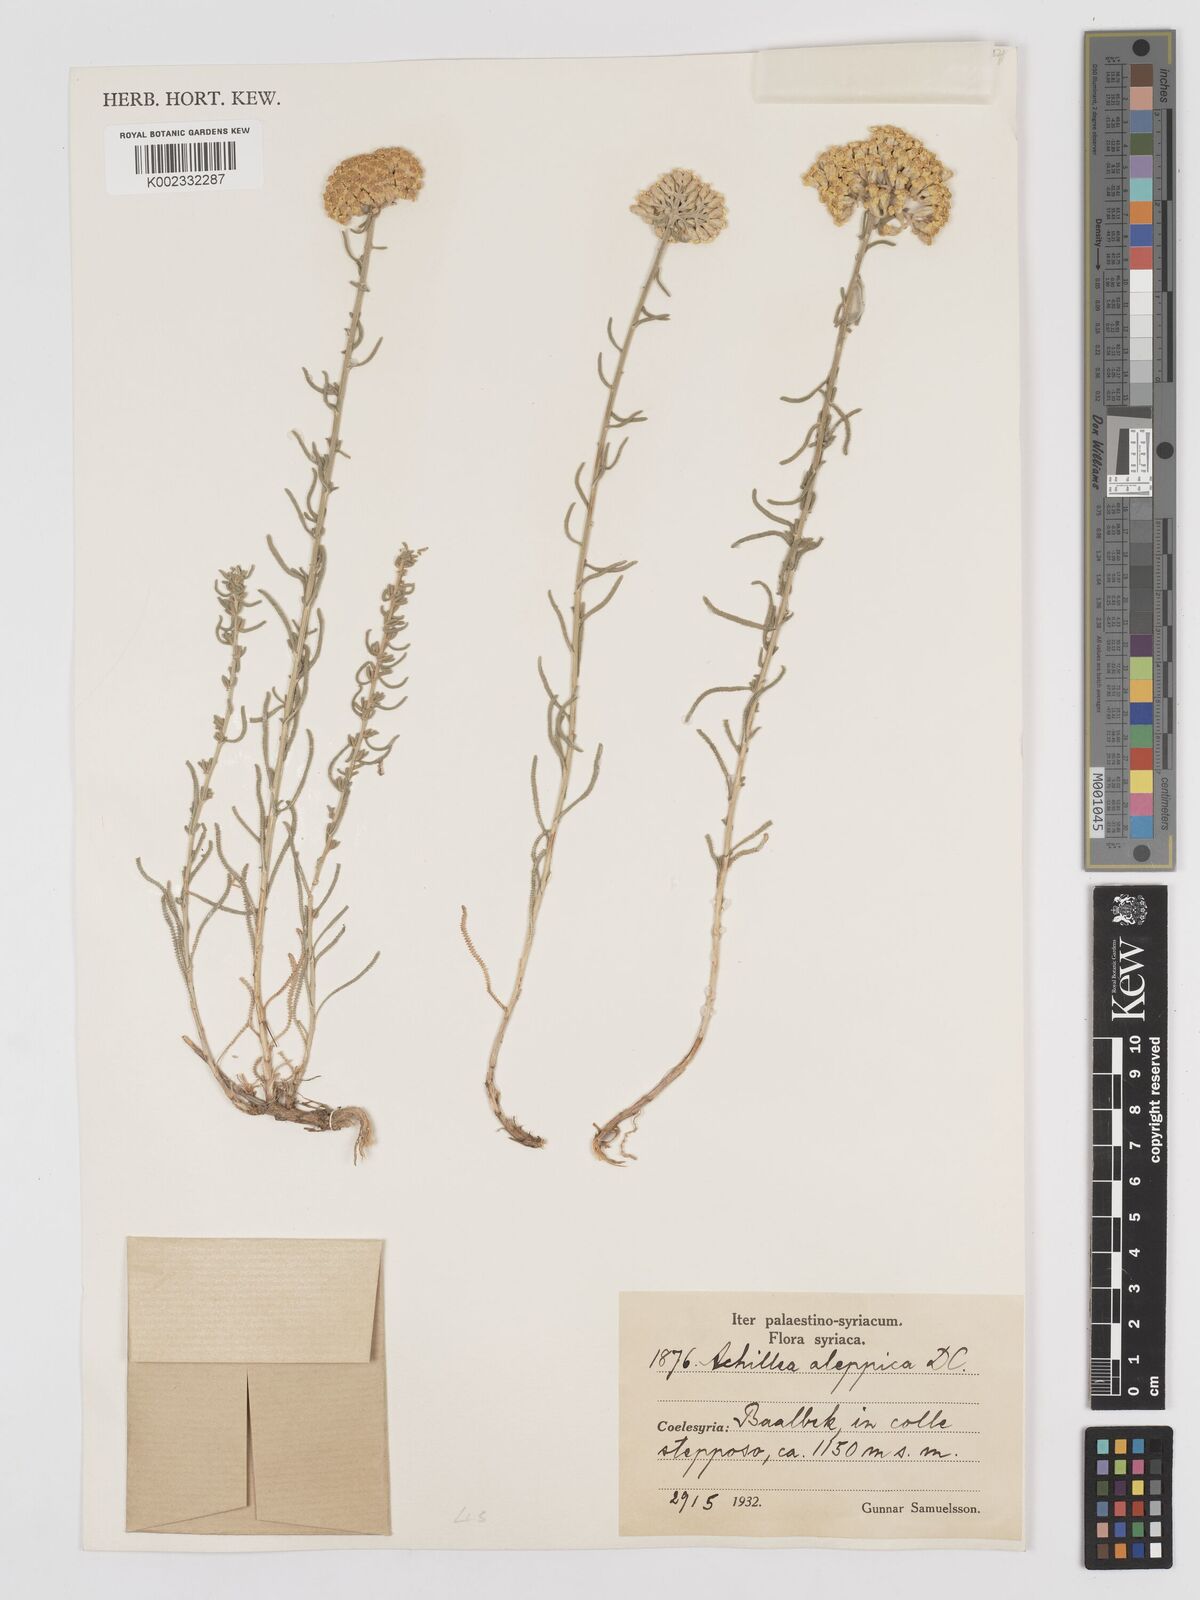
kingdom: Plantae
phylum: Tracheophyta
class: Magnoliopsida
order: Asterales
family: Asteraceae
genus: Achillea
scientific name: Achillea aleppica
